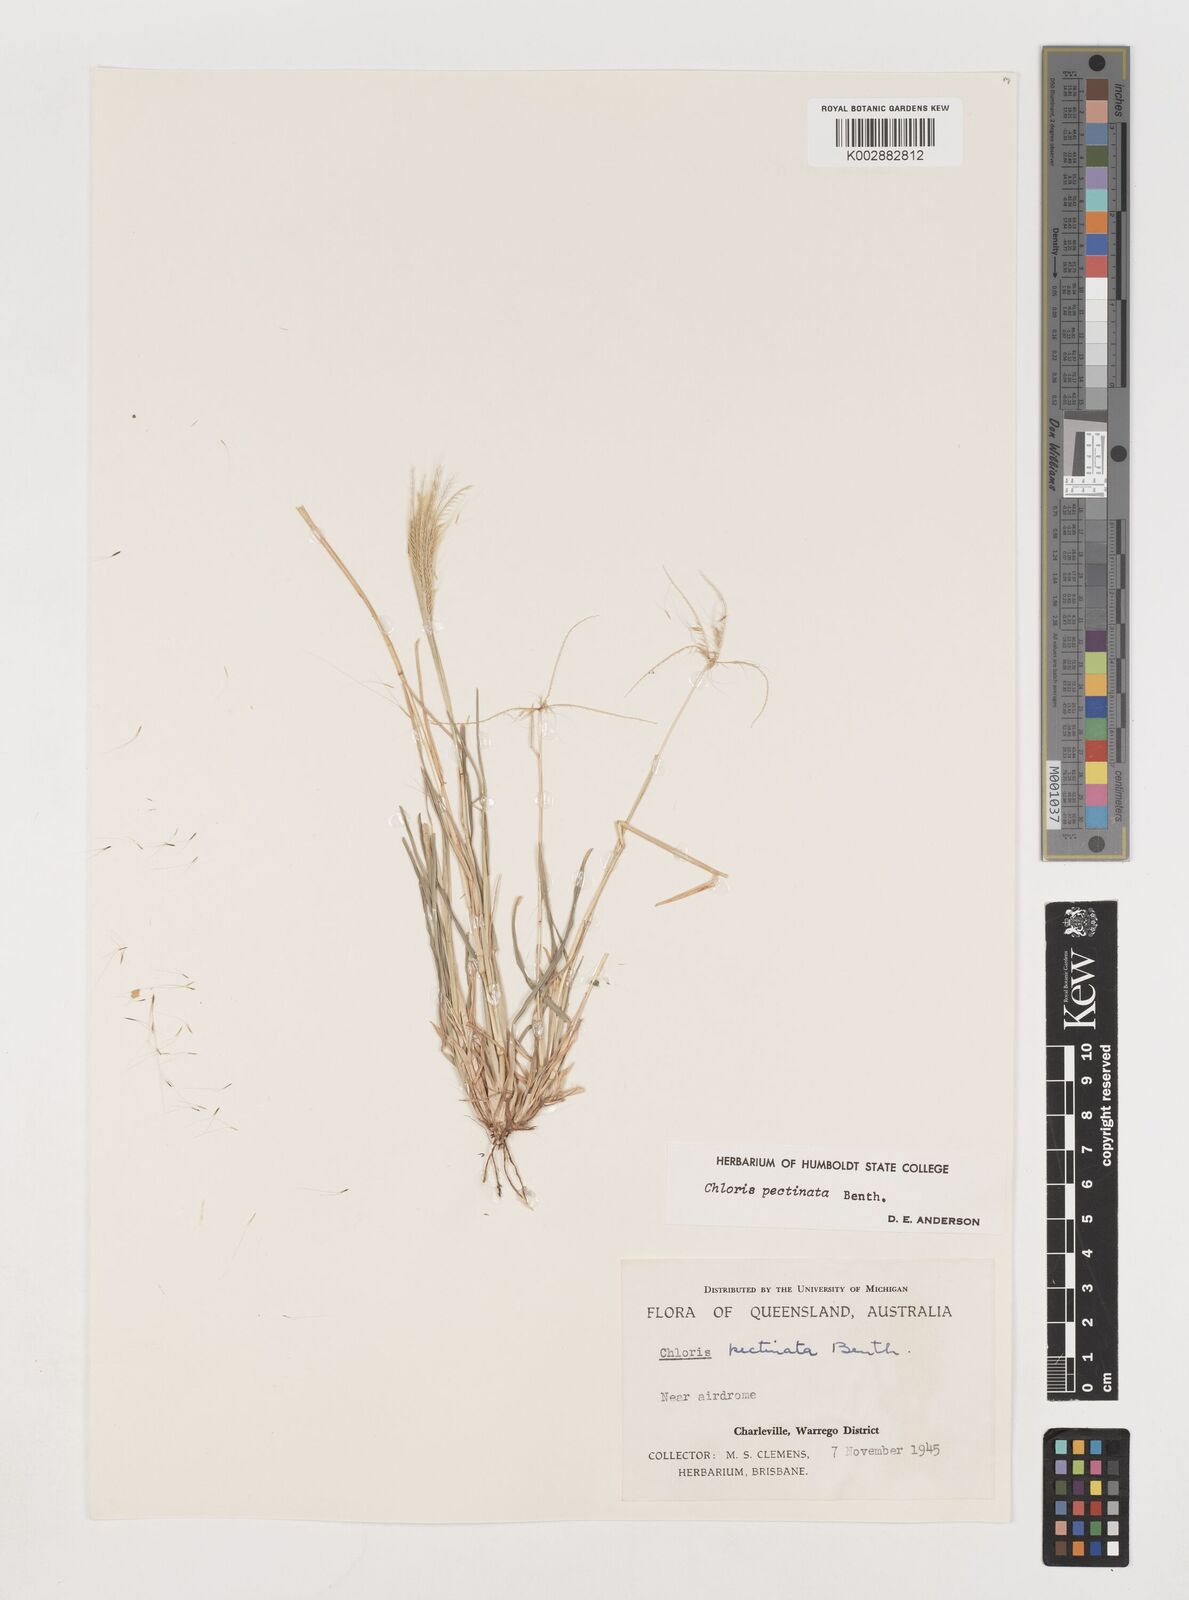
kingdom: Plantae
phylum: Tracheophyta
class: Liliopsida
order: Poales
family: Poaceae
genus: Chloris
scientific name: Chloris pectinata
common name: Comb windmill grass
